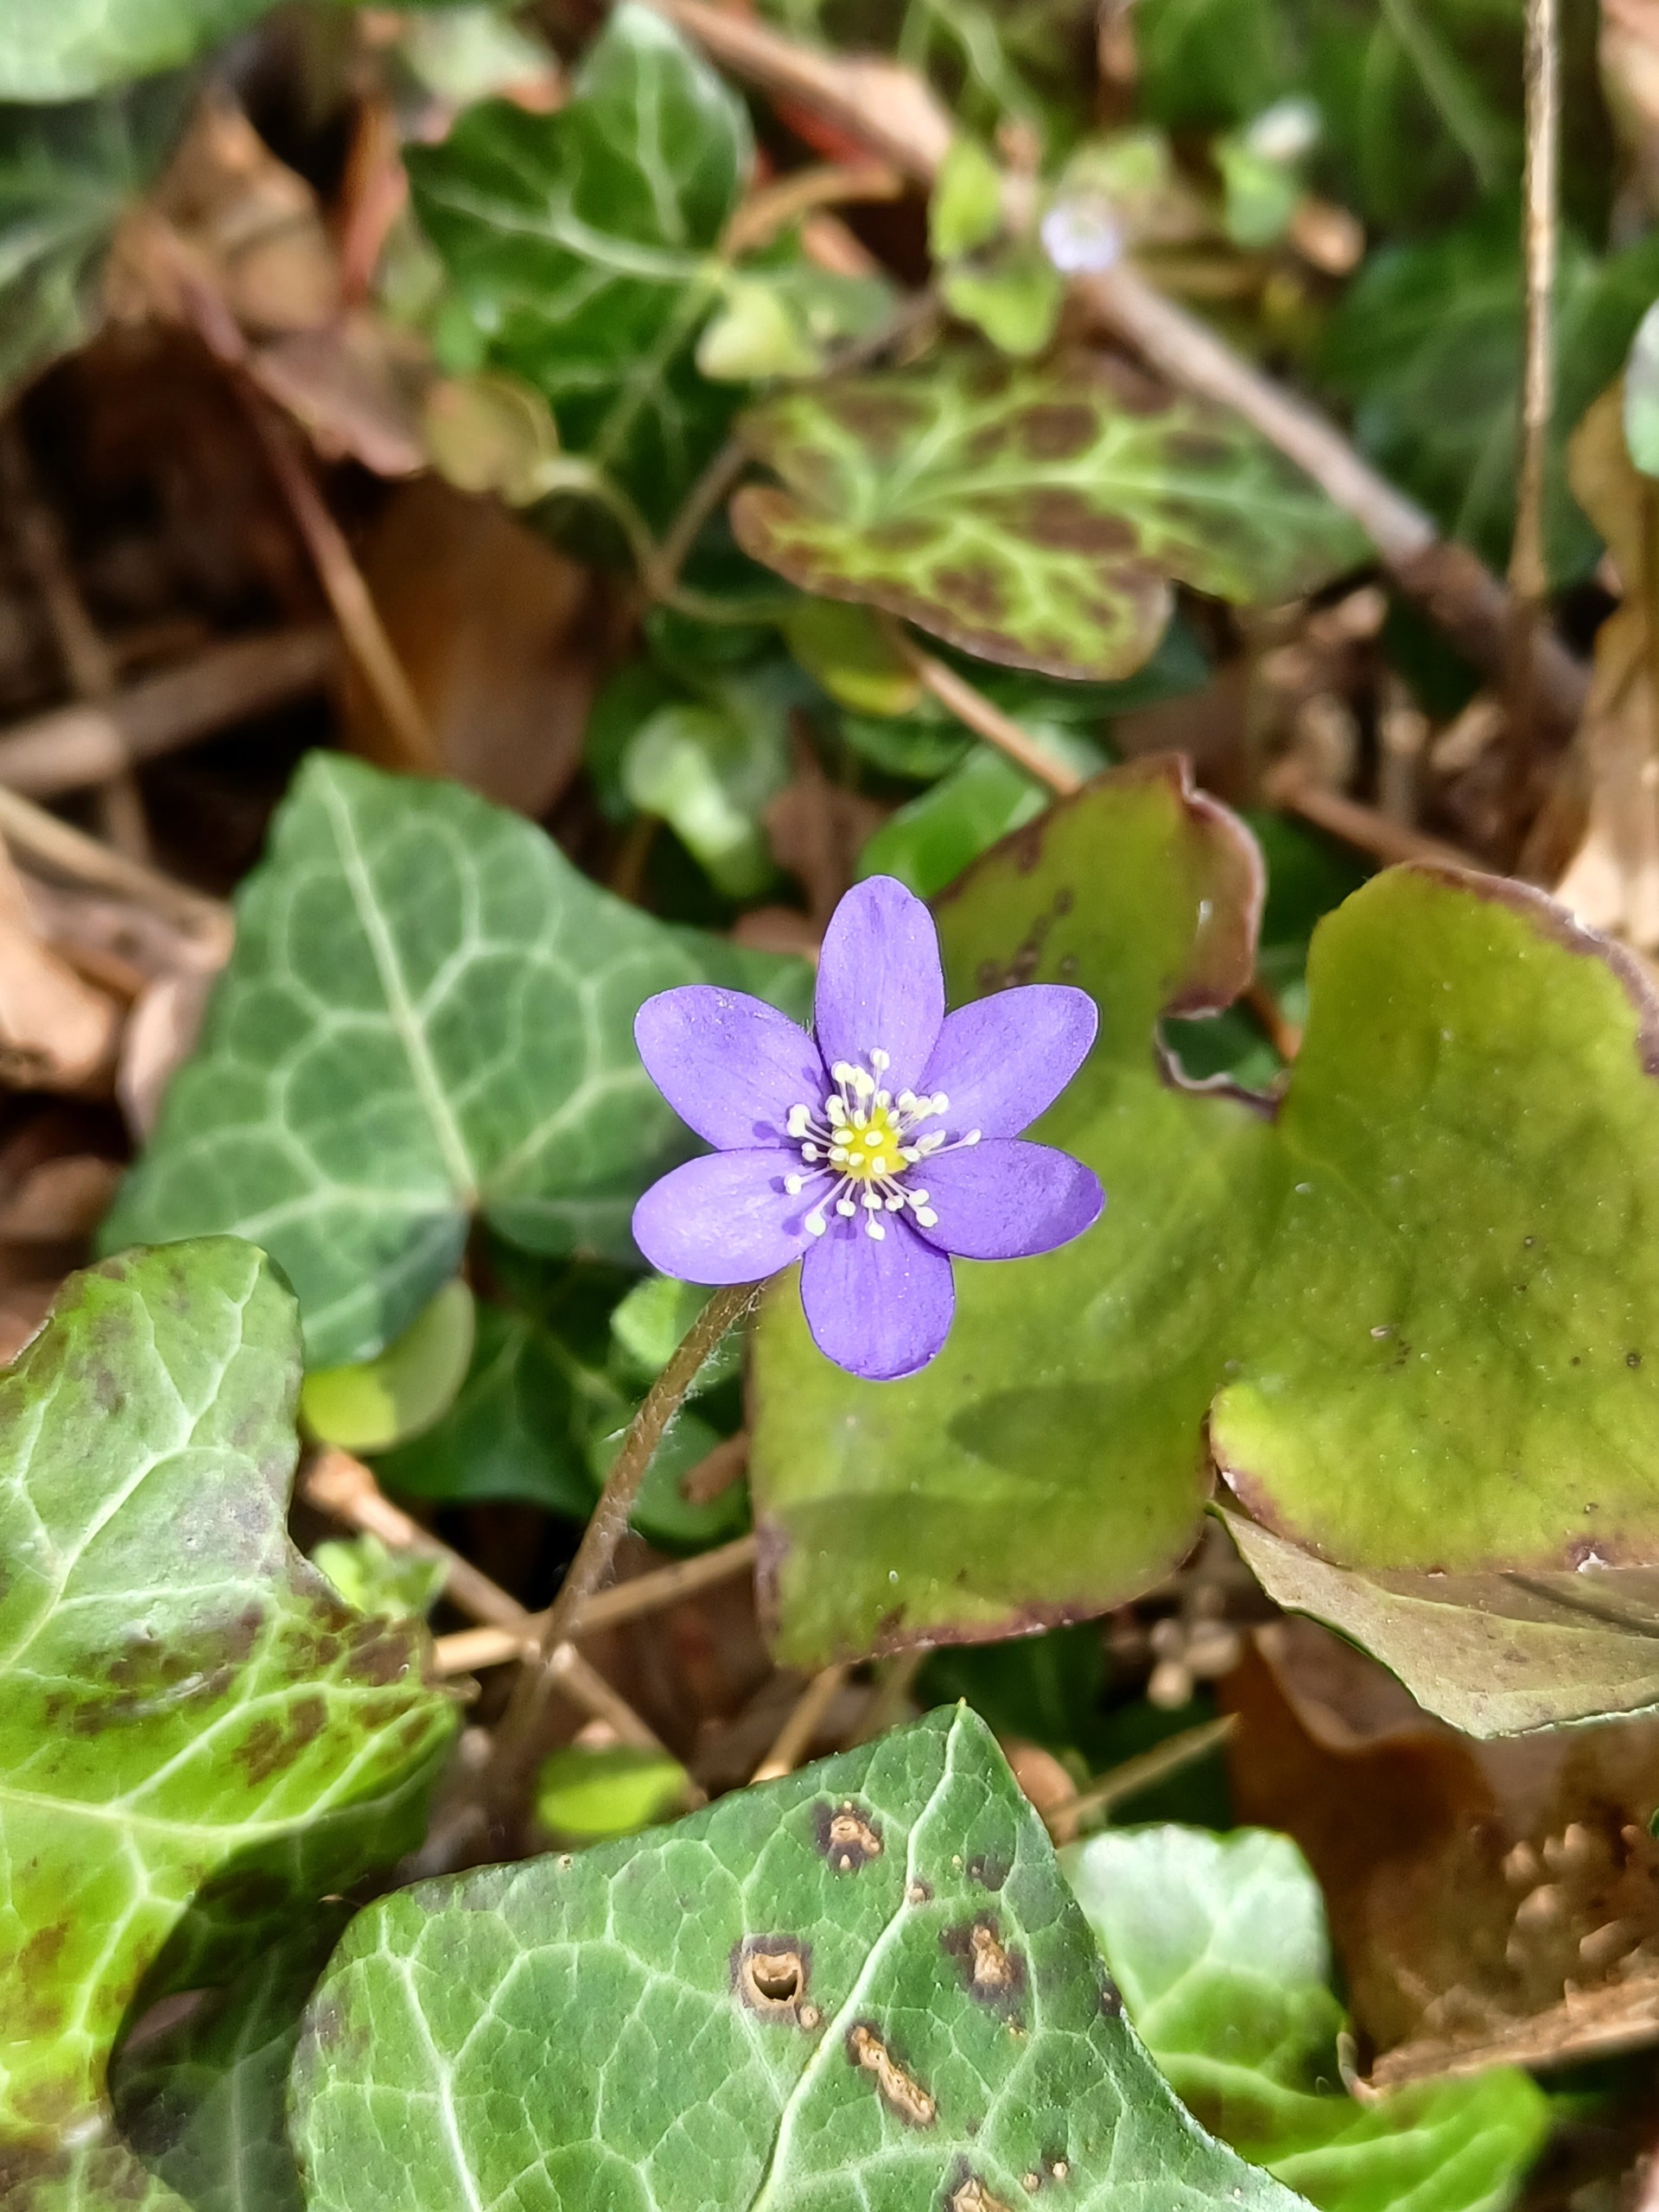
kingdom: Plantae
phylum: Tracheophyta
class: Magnoliopsida
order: Ranunculales
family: Ranunculaceae
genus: Hepatica
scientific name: Hepatica nobilis
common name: Blå anemone
